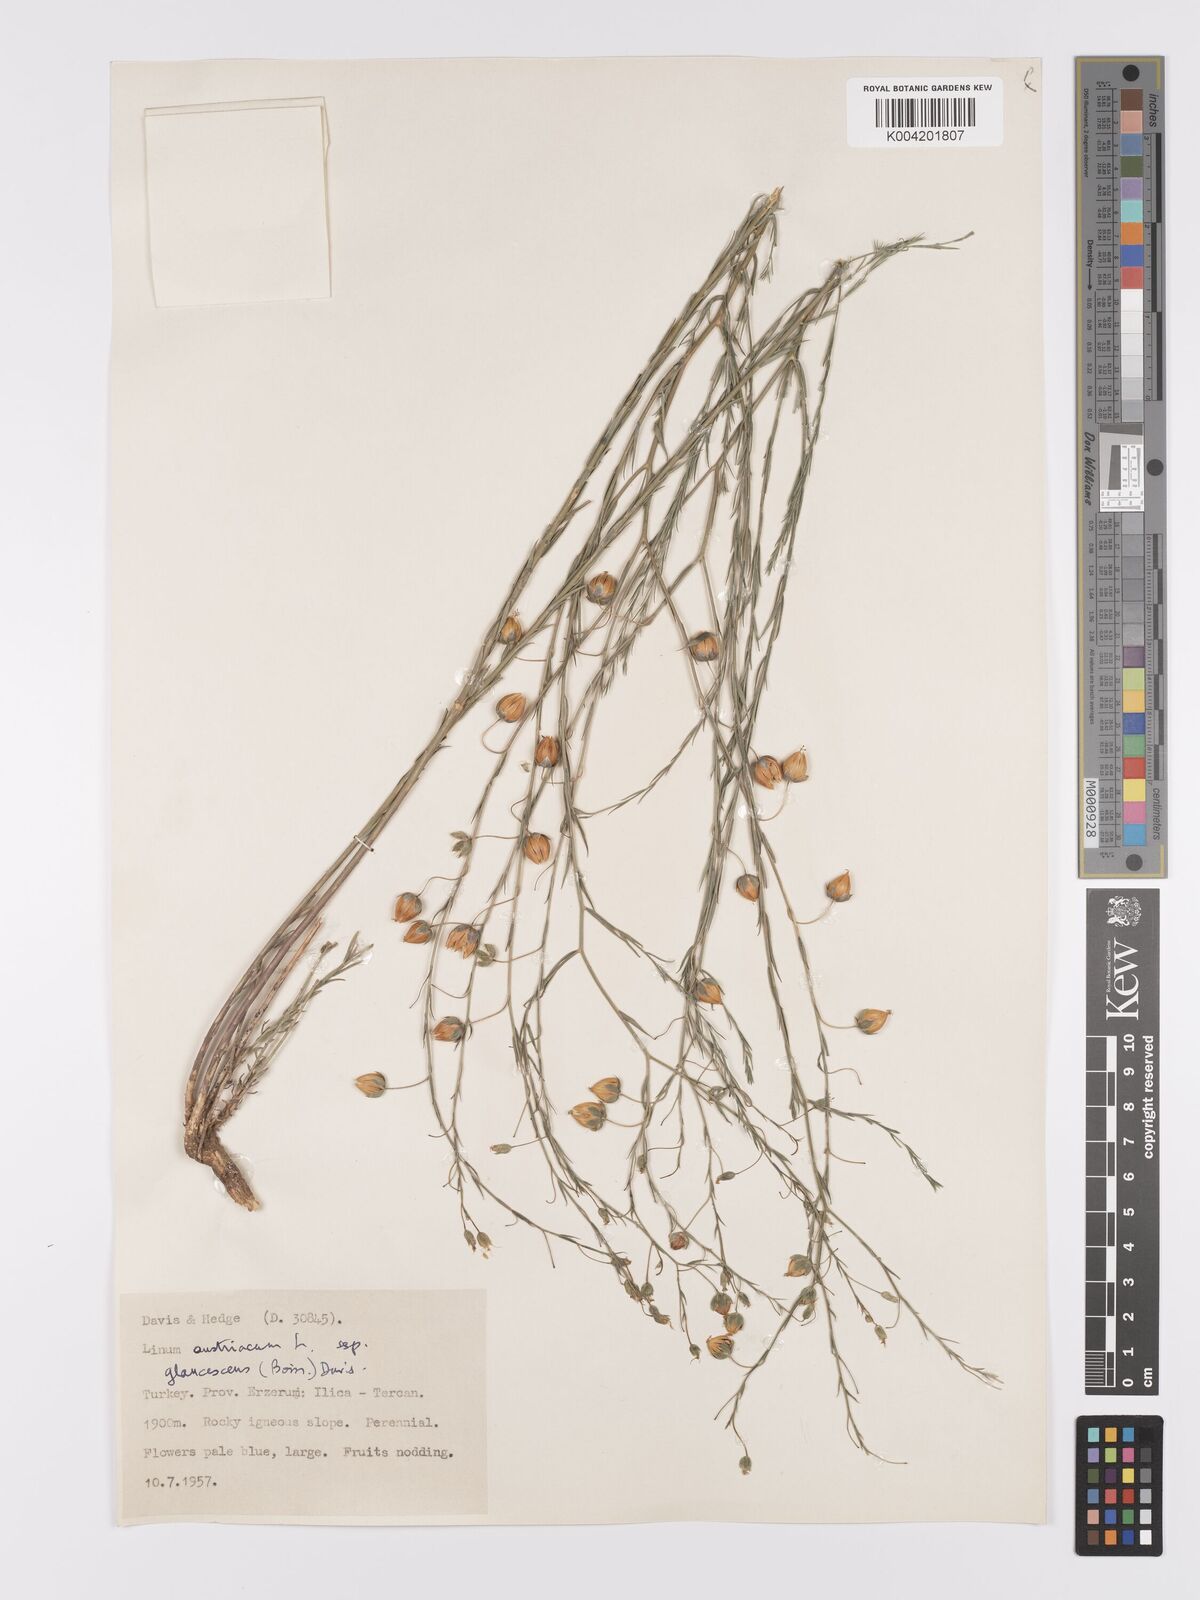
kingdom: Plantae
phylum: Tracheophyta
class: Magnoliopsida
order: Malpighiales
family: Linaceae
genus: Linum
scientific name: Linum
